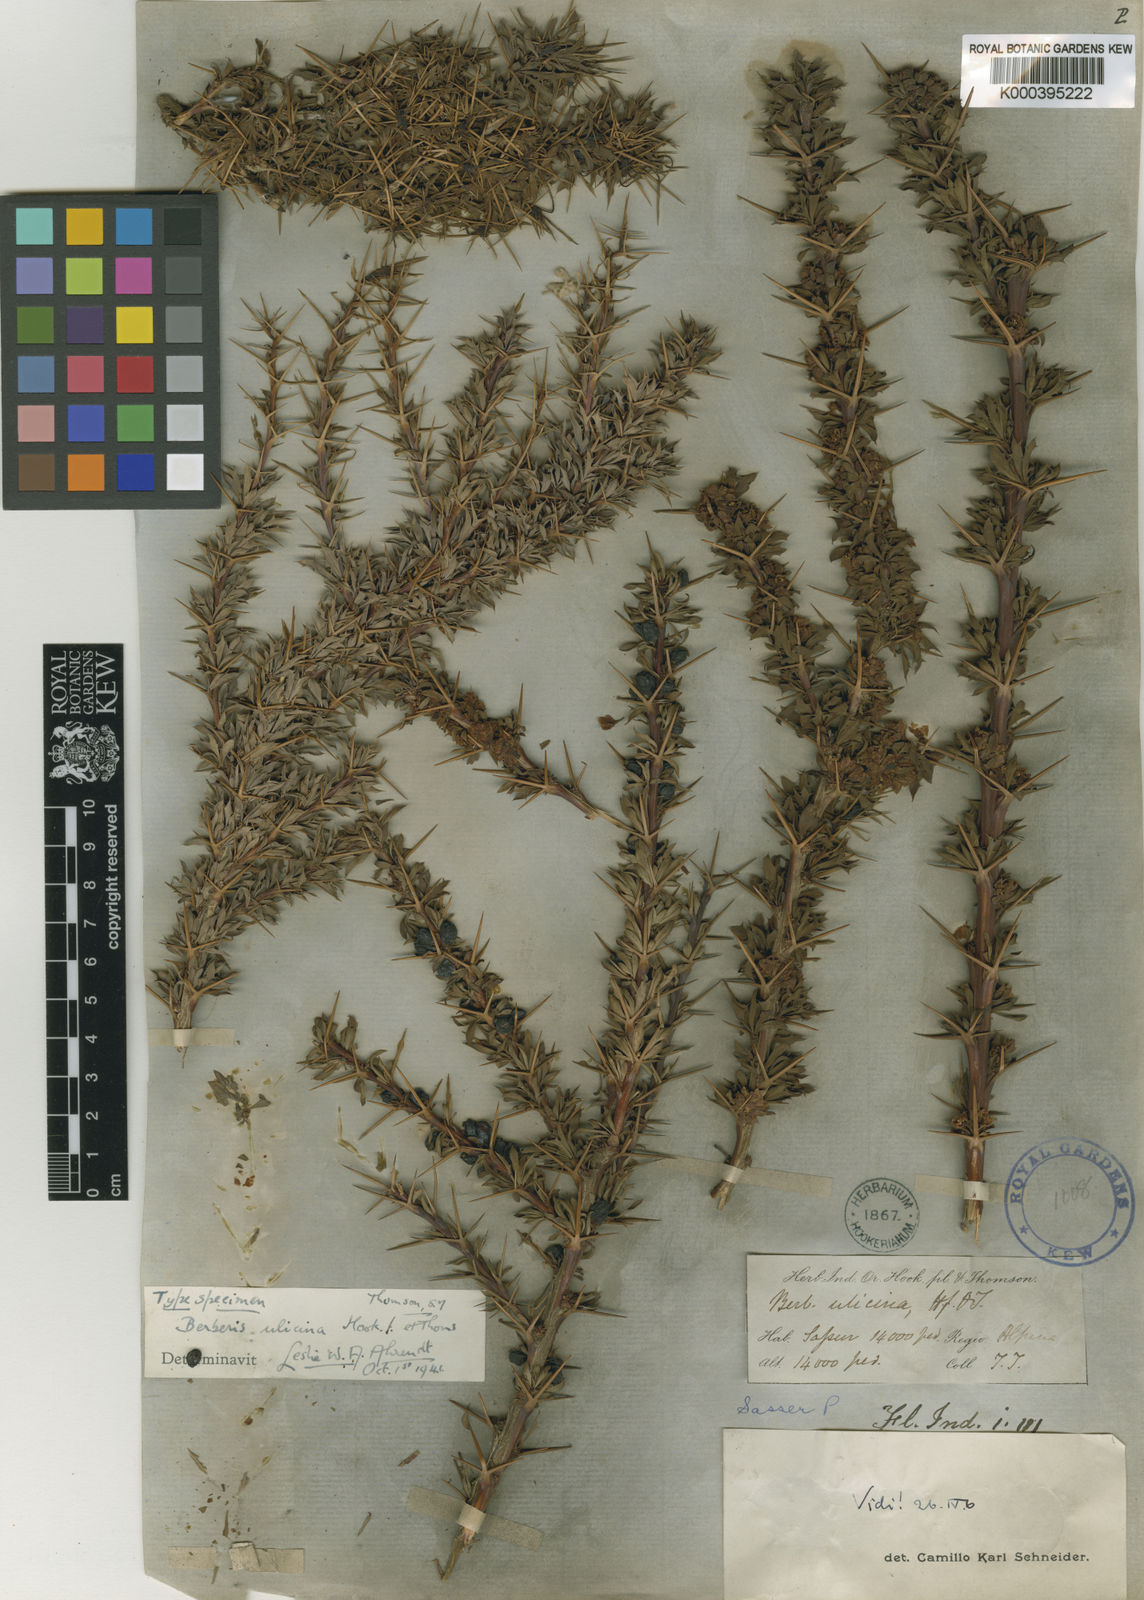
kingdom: Plantae
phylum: Tracheophyta
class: Magnoliopsida
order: Ranunculales
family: Berberidaceae
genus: Berberis
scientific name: Berberis ulicina
